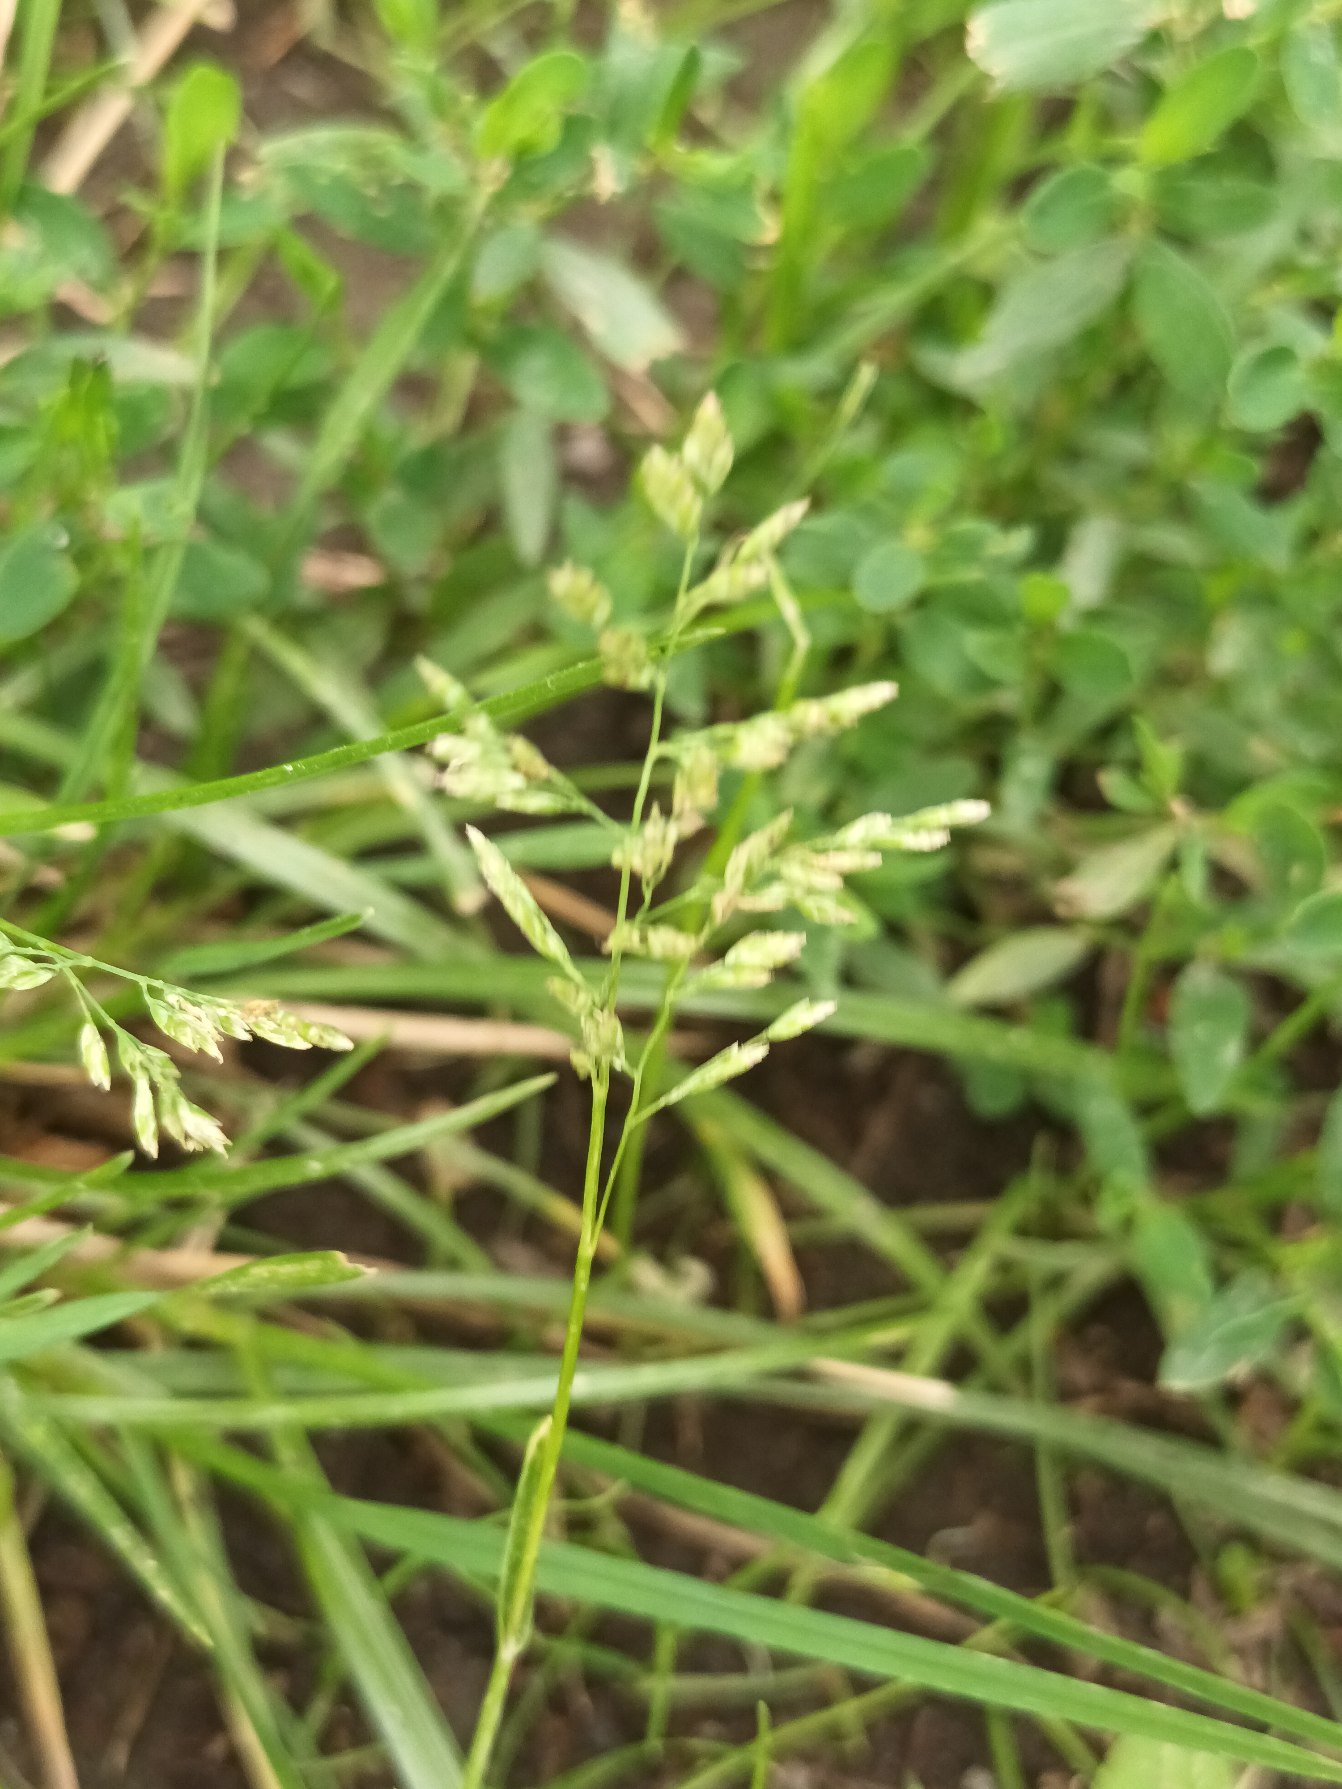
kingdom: Plantae
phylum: Tracheophyta
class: Liliopsida
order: Poales
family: Poaceae
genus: Poa
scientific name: Poa annua
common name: Enårig rapgræs
